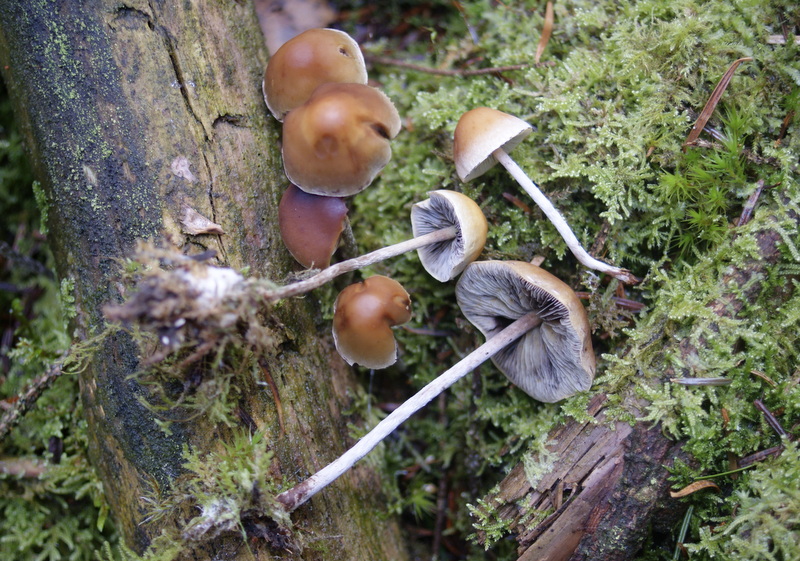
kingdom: Fungi
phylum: Basidiomycota
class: Agaricomycetes
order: Agaricales
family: Strophariaceae
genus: Hypholoma
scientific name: Hypholoma marginatum
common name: enlig svovlhat
